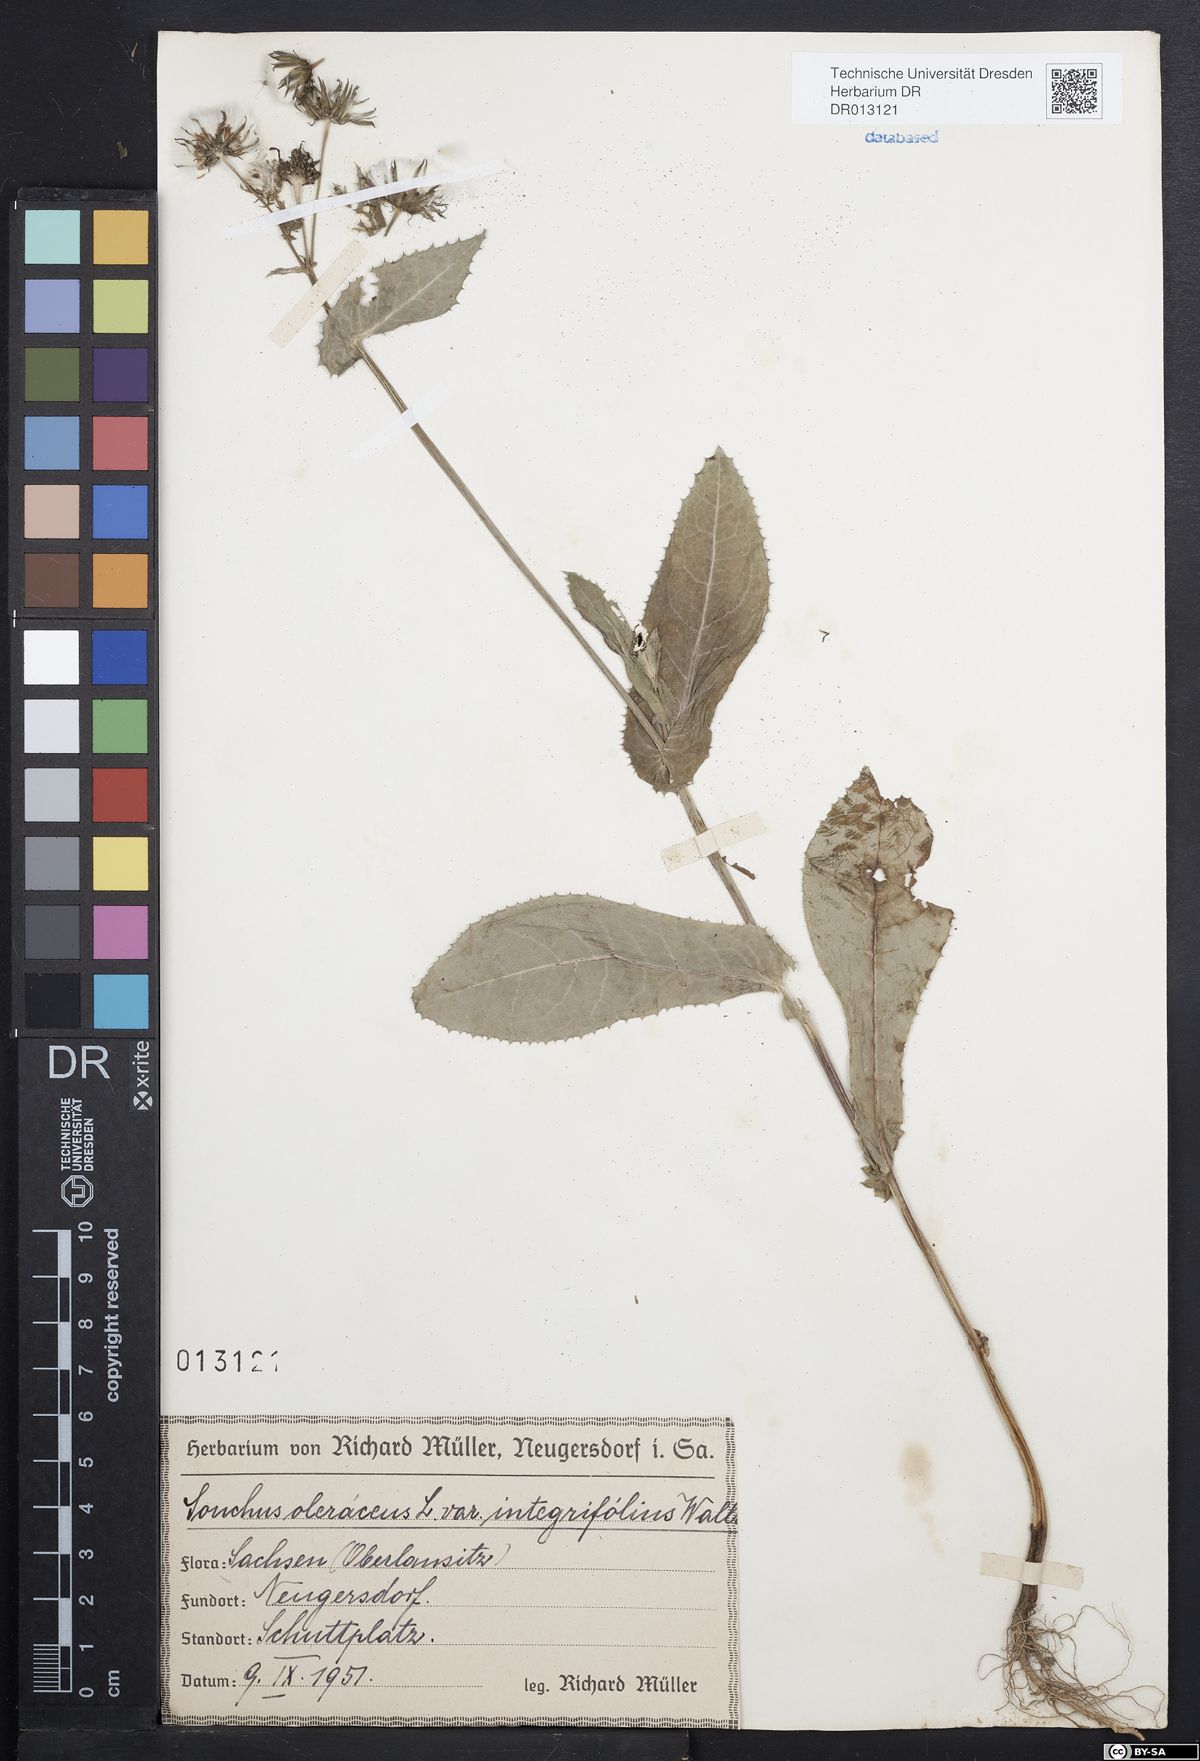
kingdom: Plantae
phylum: Tracheophyta
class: Magnoliopsida
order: Asterales
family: Asteraceae
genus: Sonchus
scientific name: Sonchus oleraceus
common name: Common sowthistle
